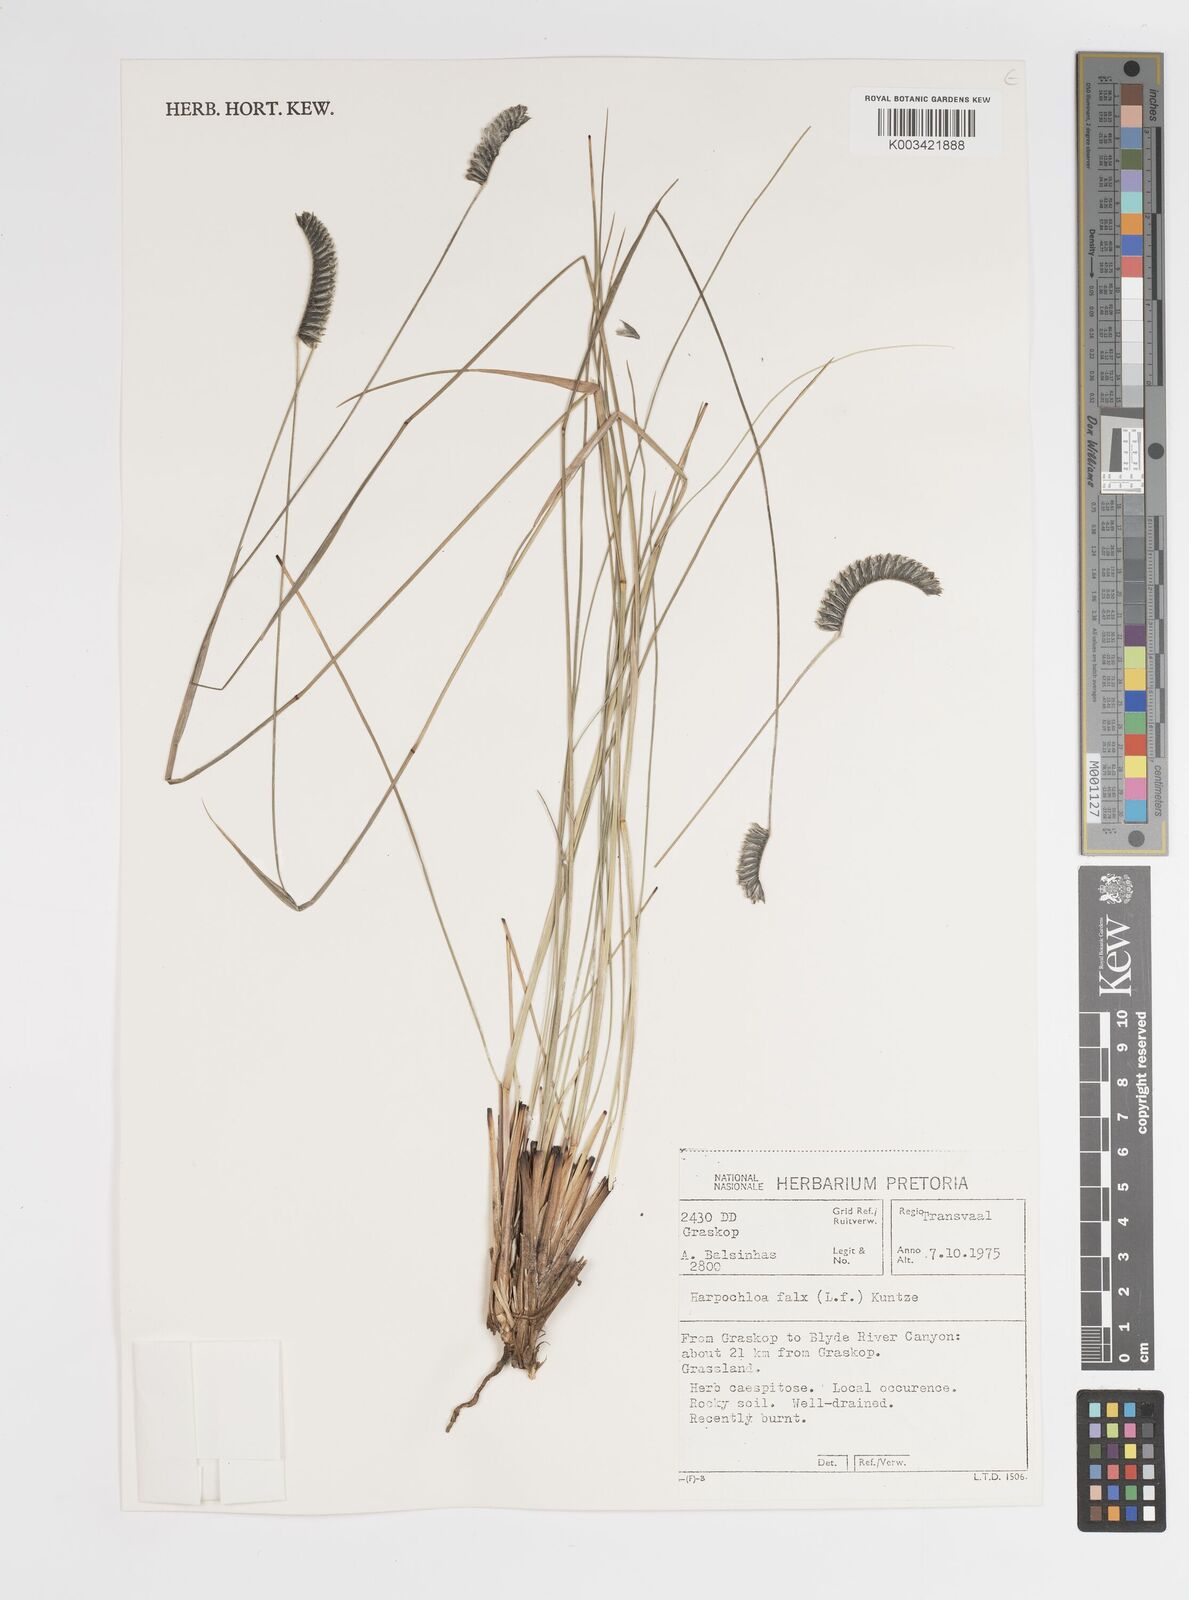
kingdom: Plantae
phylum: Tracheophyta
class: Liliopsida
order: Poales
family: Poaceae
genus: Harpochloa
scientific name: Harpochloa falx
